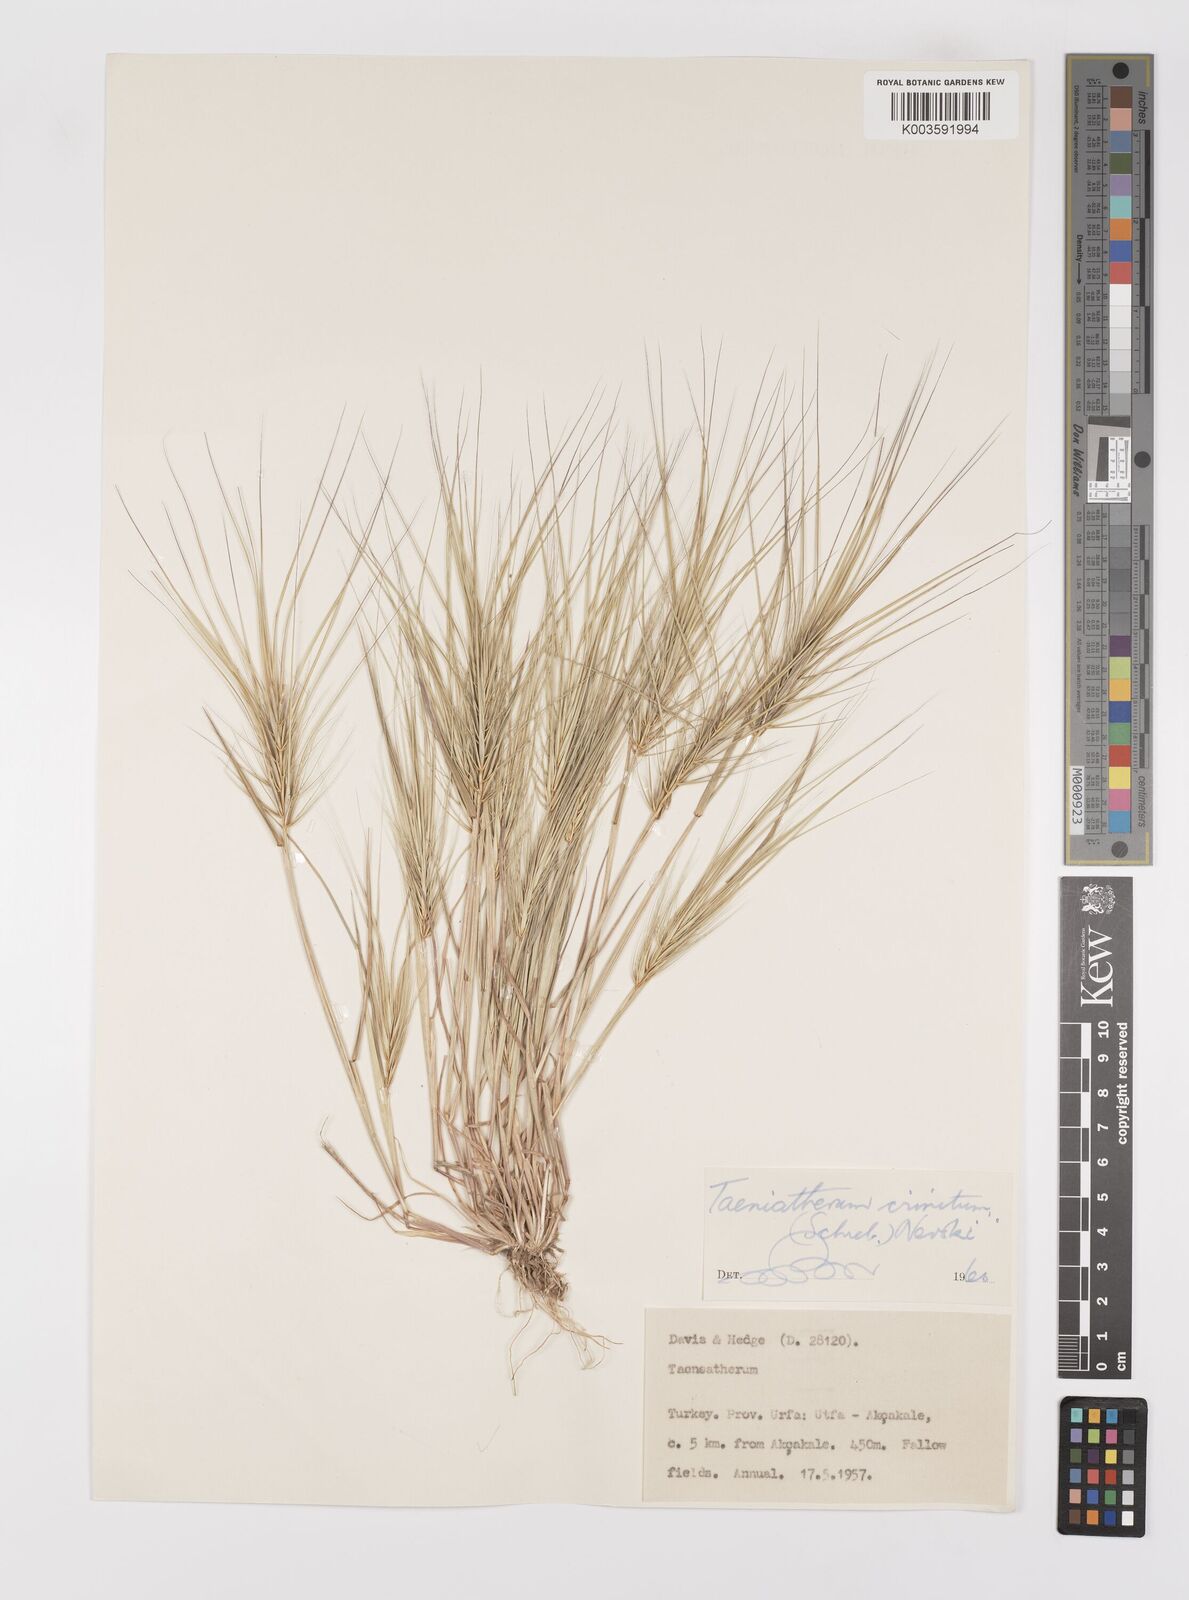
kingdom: Plantae
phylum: Tracheophyta
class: Liliopsida
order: Poales
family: Poaceae
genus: Taeniatherum
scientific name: Taeniatherum caput-medusae
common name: Medusahead
